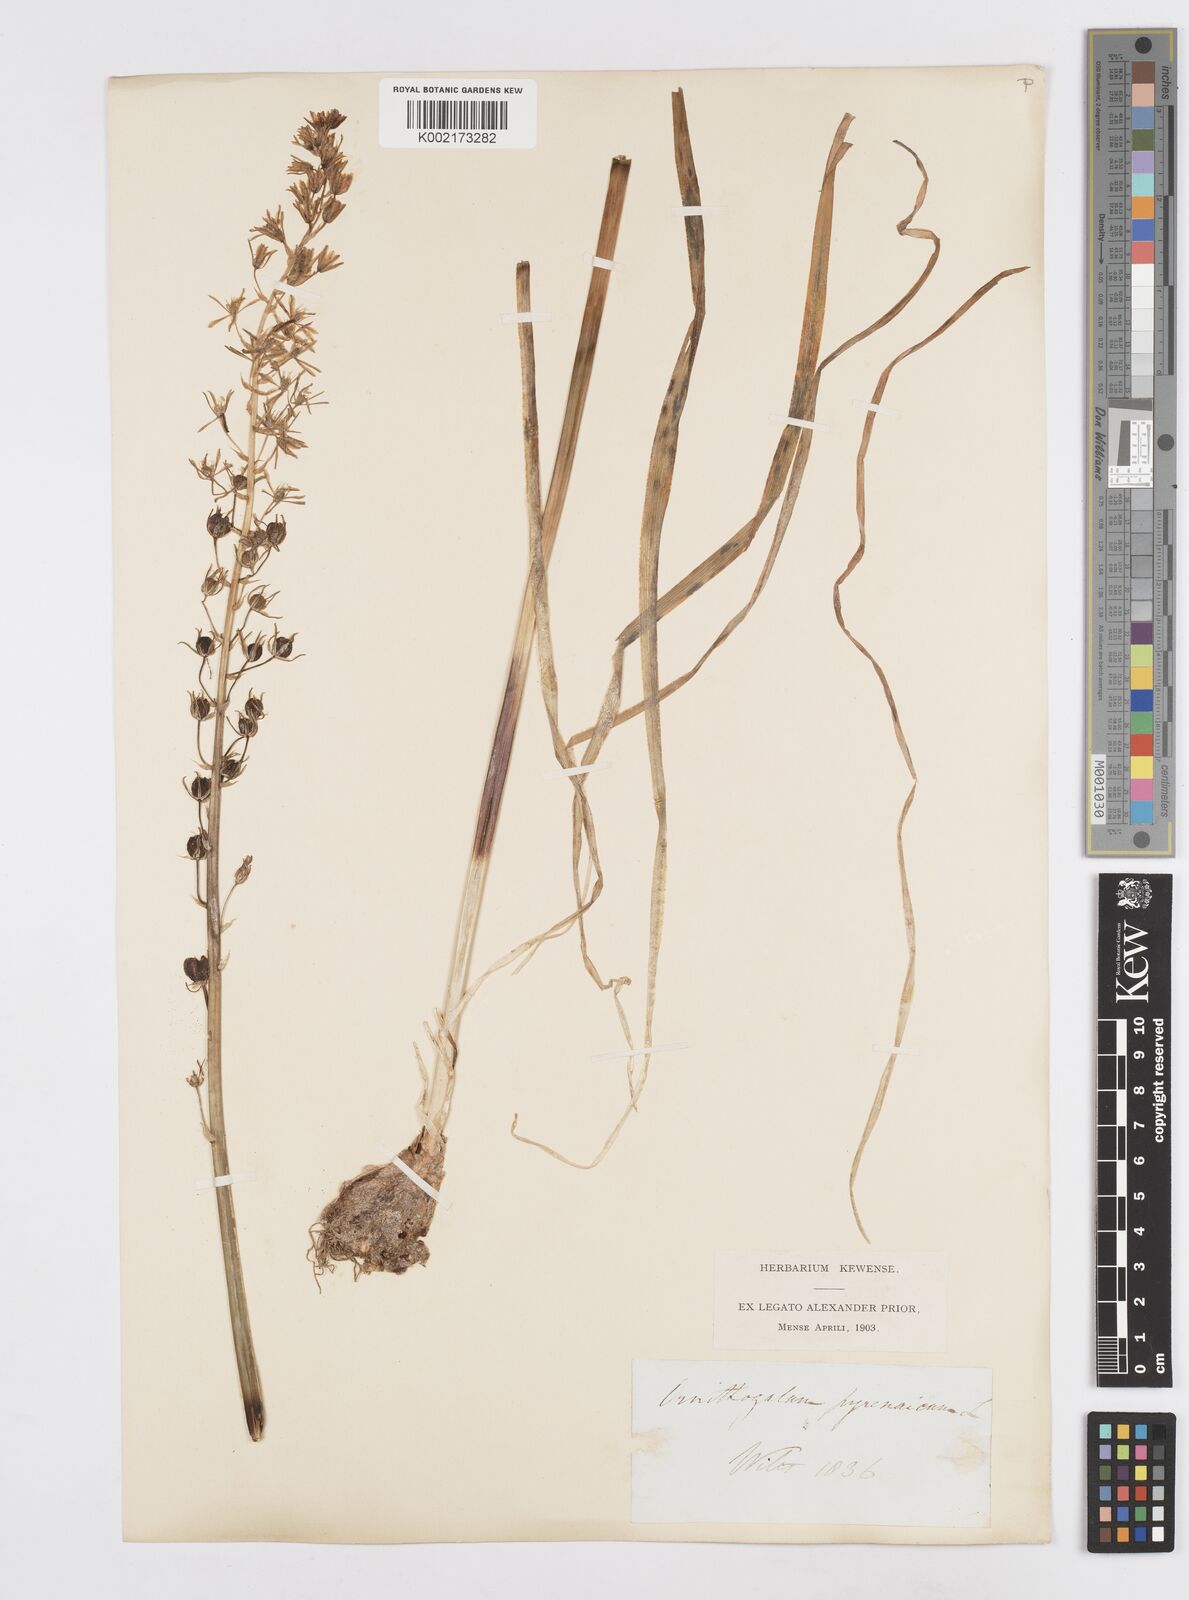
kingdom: Plantae
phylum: Tracheophyta
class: Liliopsida
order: Asparagales
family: Asparagaceae
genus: Ornithogalum
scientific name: Ornithogalum pyrenaicum
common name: Spiked star-of-bethlehem
